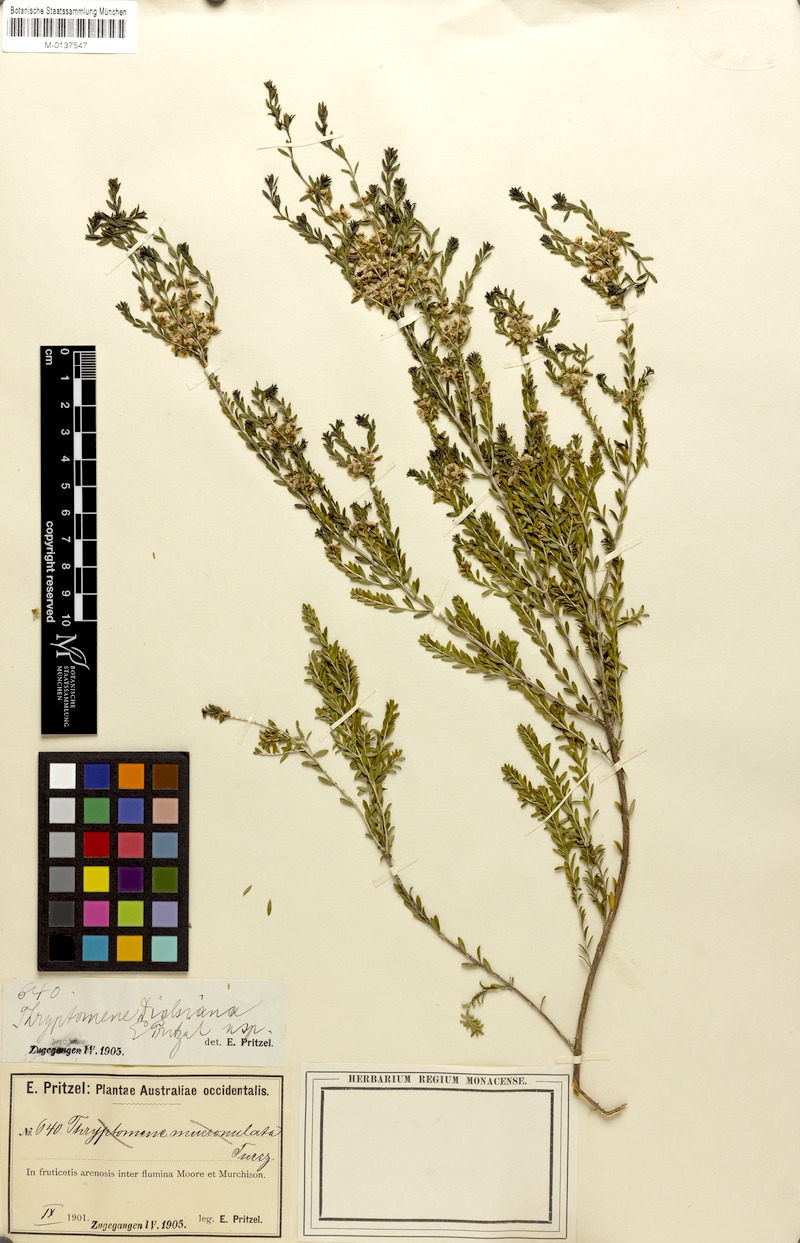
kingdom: Plantae
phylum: Tracheophyta
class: Magnoliopsida
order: Myrtales
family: Myrtaceae
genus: Thryptomene
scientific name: Thryptomene mucronulata
